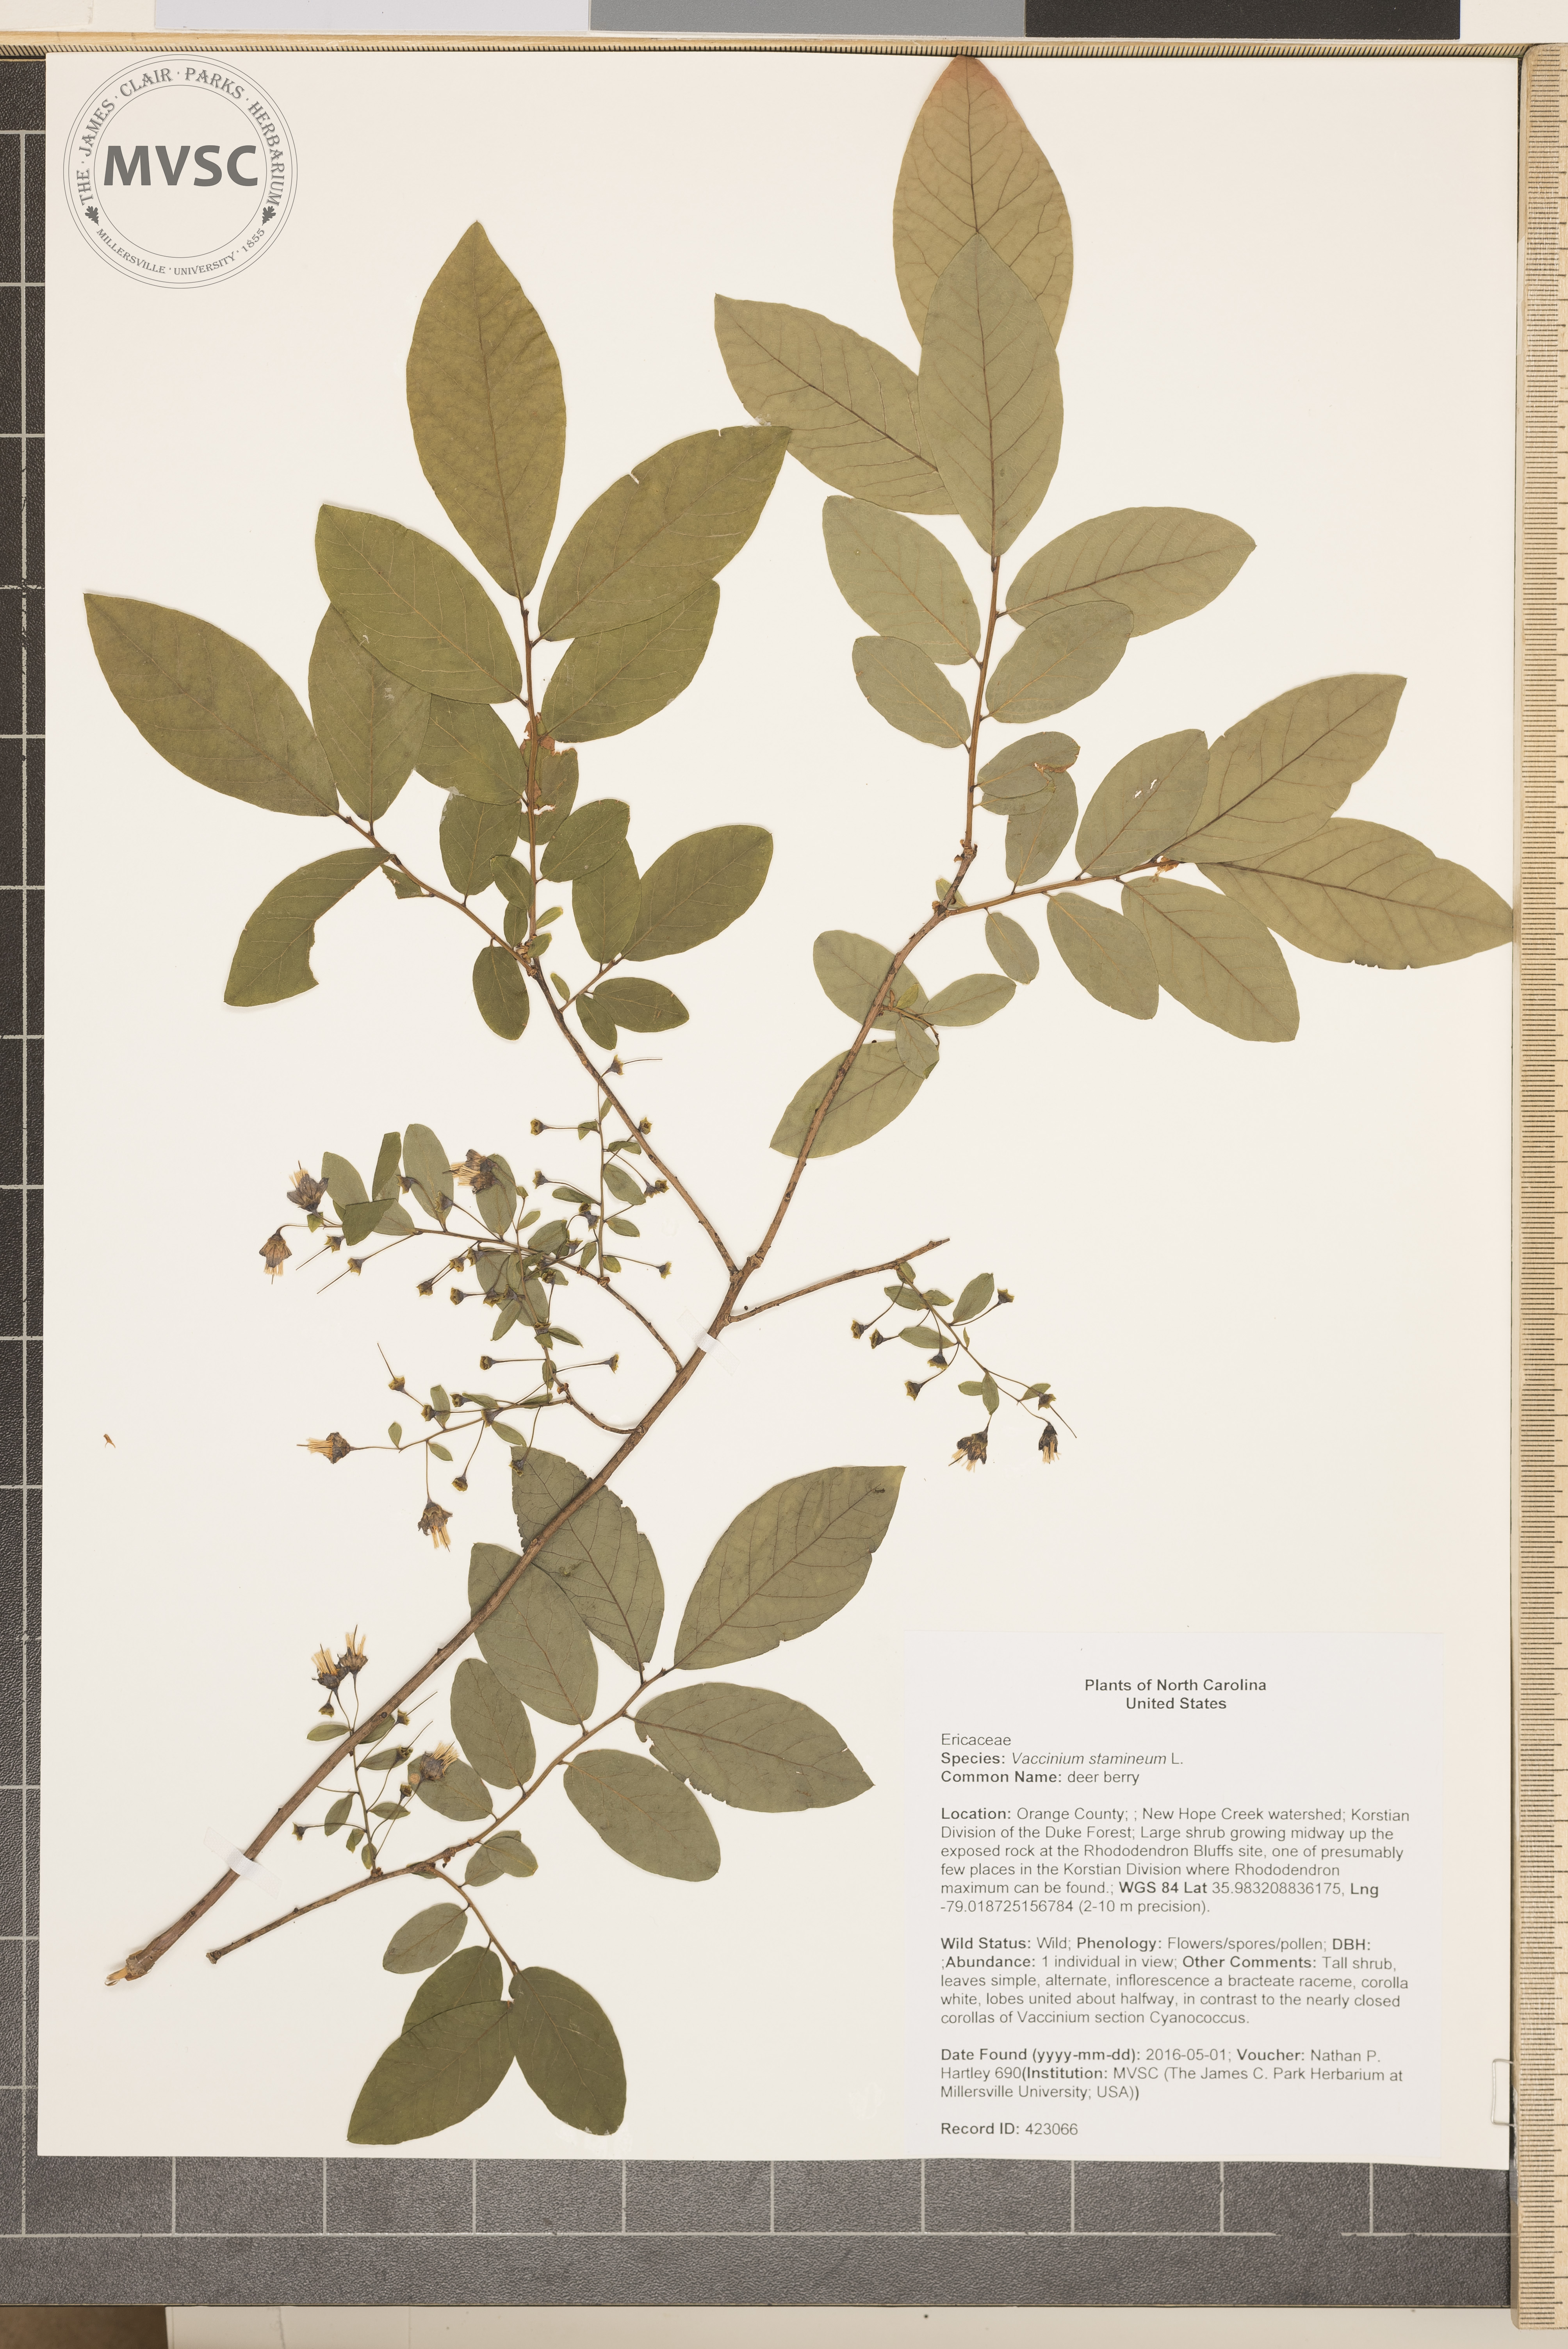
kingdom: Plantae
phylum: Tracheophyta
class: Magnoliopsida
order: Ericales
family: Ericaceae
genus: Vaccinium
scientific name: Vaccinium stamineum
